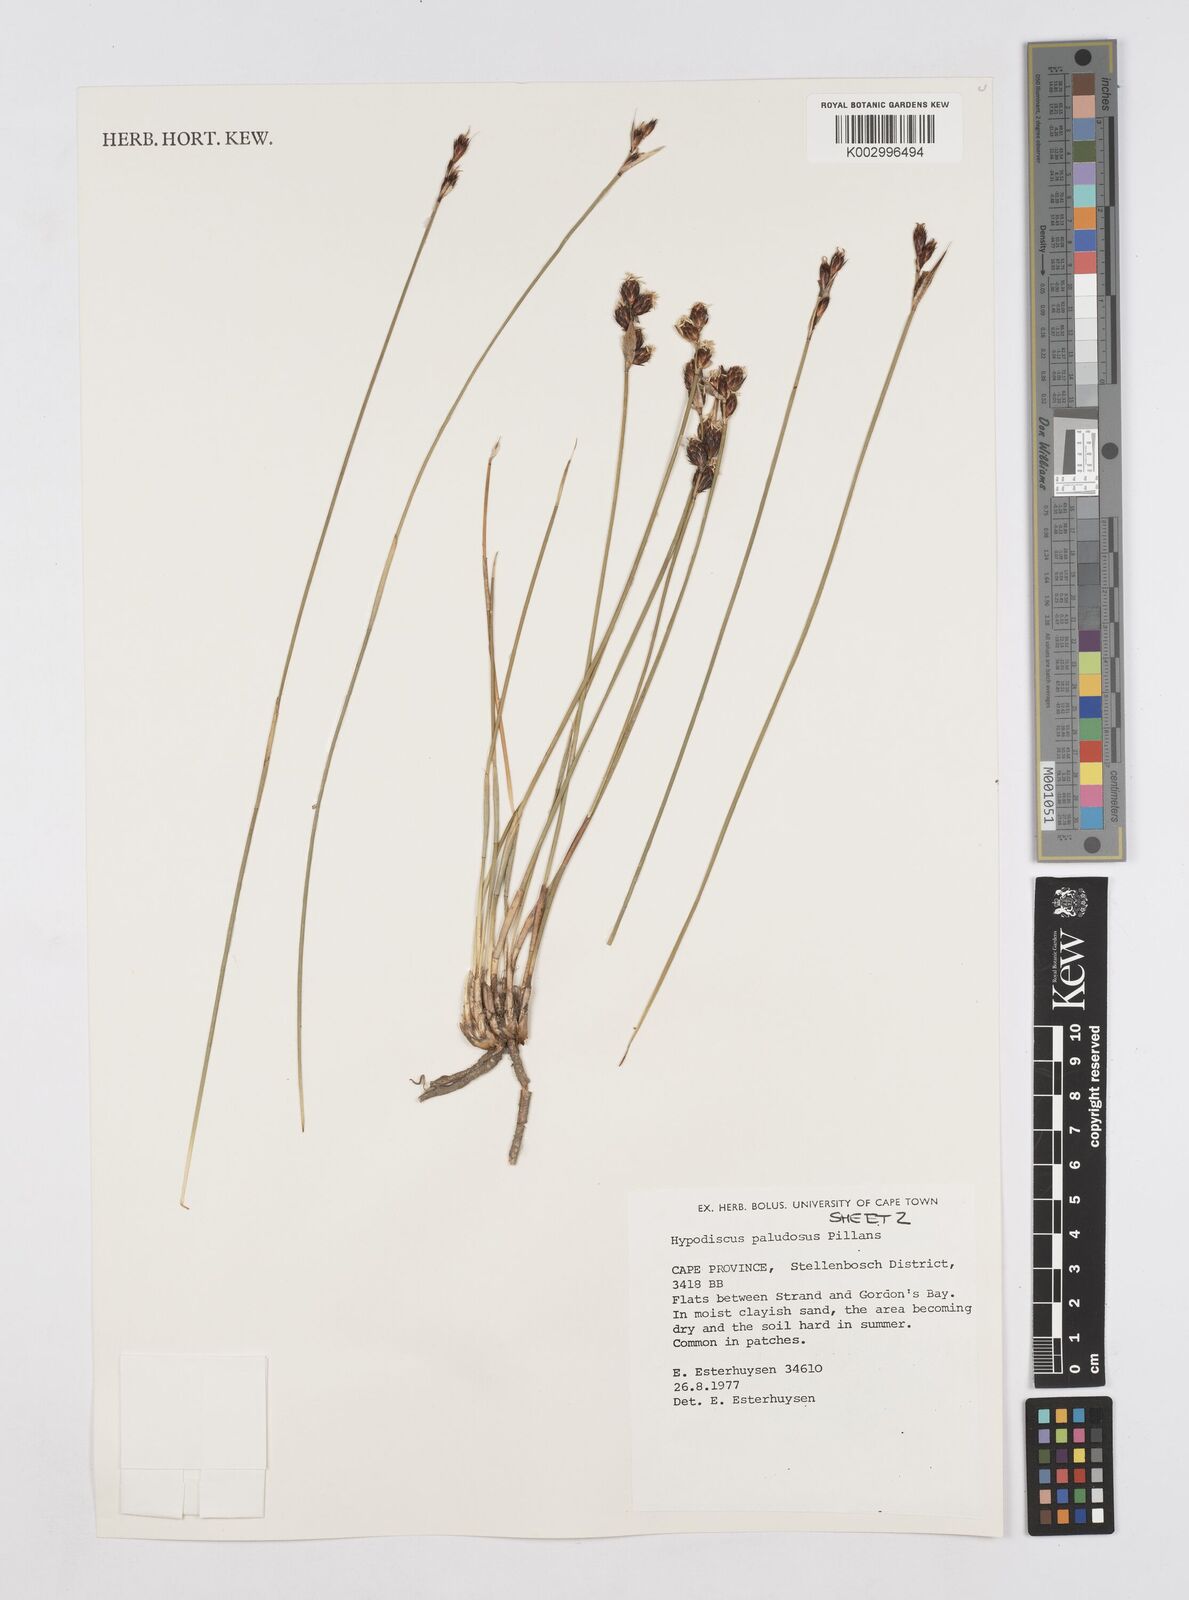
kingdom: Plantae
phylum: Tracheophyta
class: Liliopsida
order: Poales
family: Restionaceae
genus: Hypodiscus
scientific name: Hypodiscus rugosus
